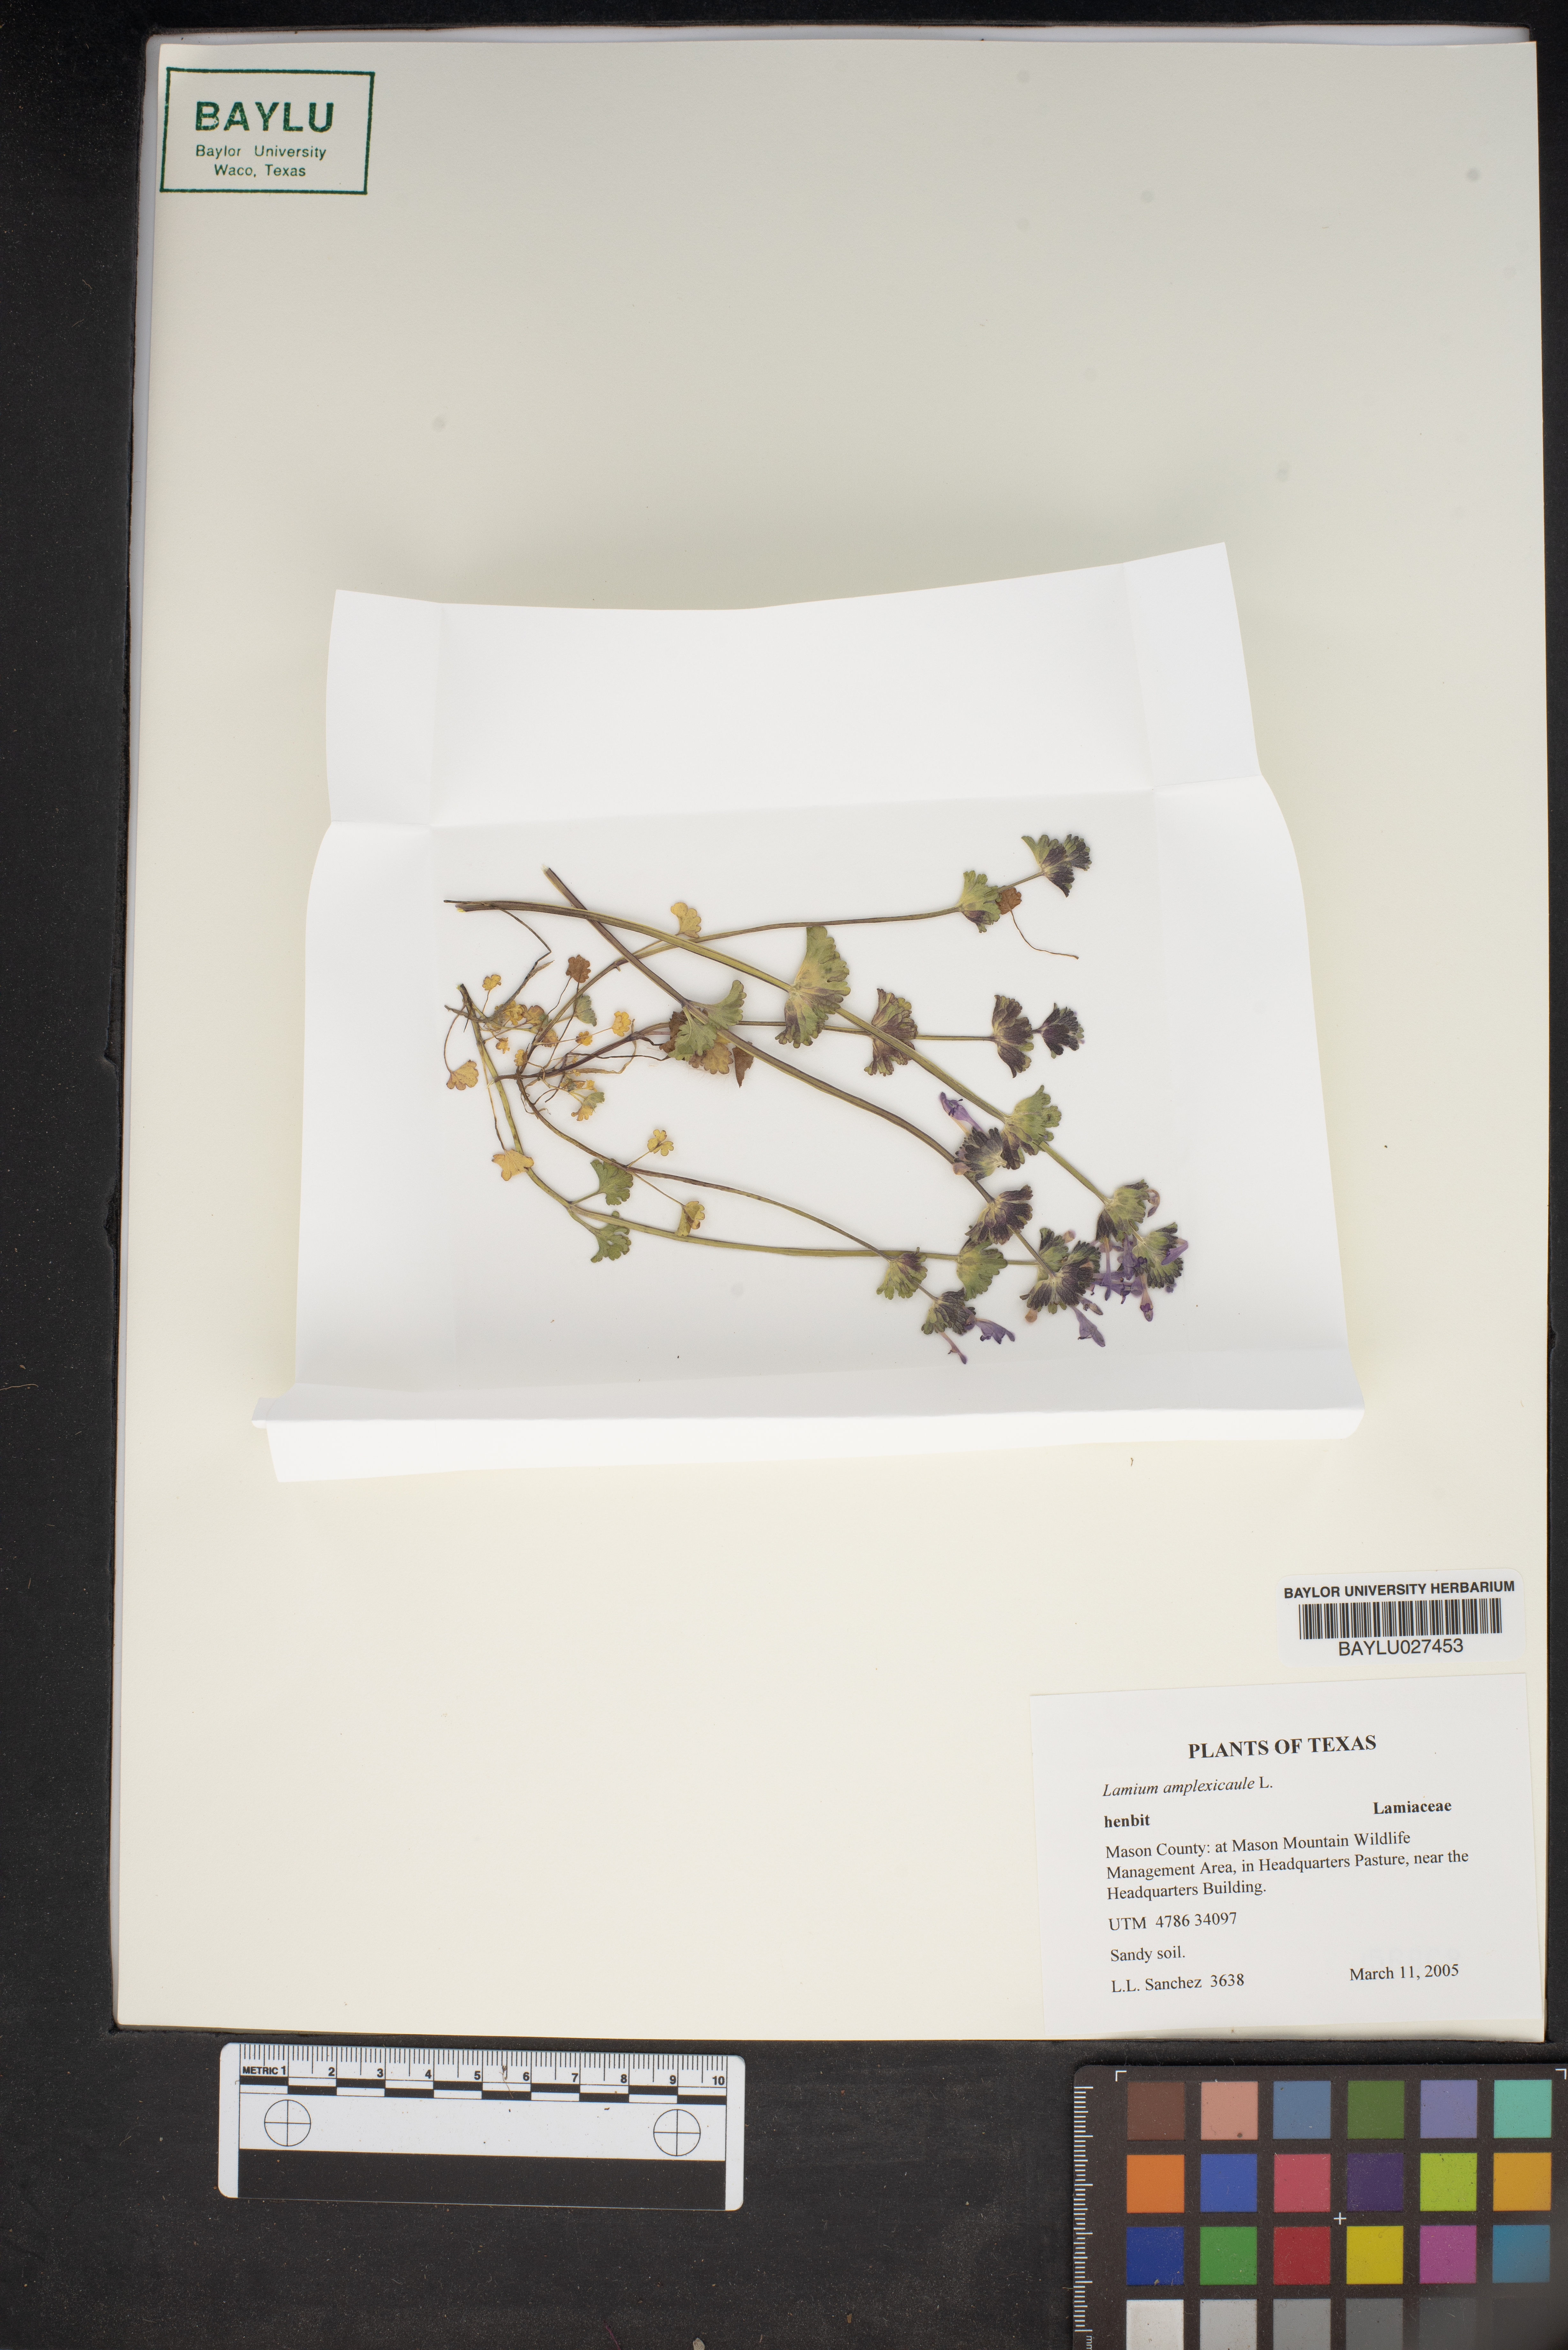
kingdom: Plantae
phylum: Tracheophyta
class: Magnoliopsida
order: Lamiales
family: Lamiaceae
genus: Lamium
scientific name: Lamium amplexicaule
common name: Henbit dead-nettle
